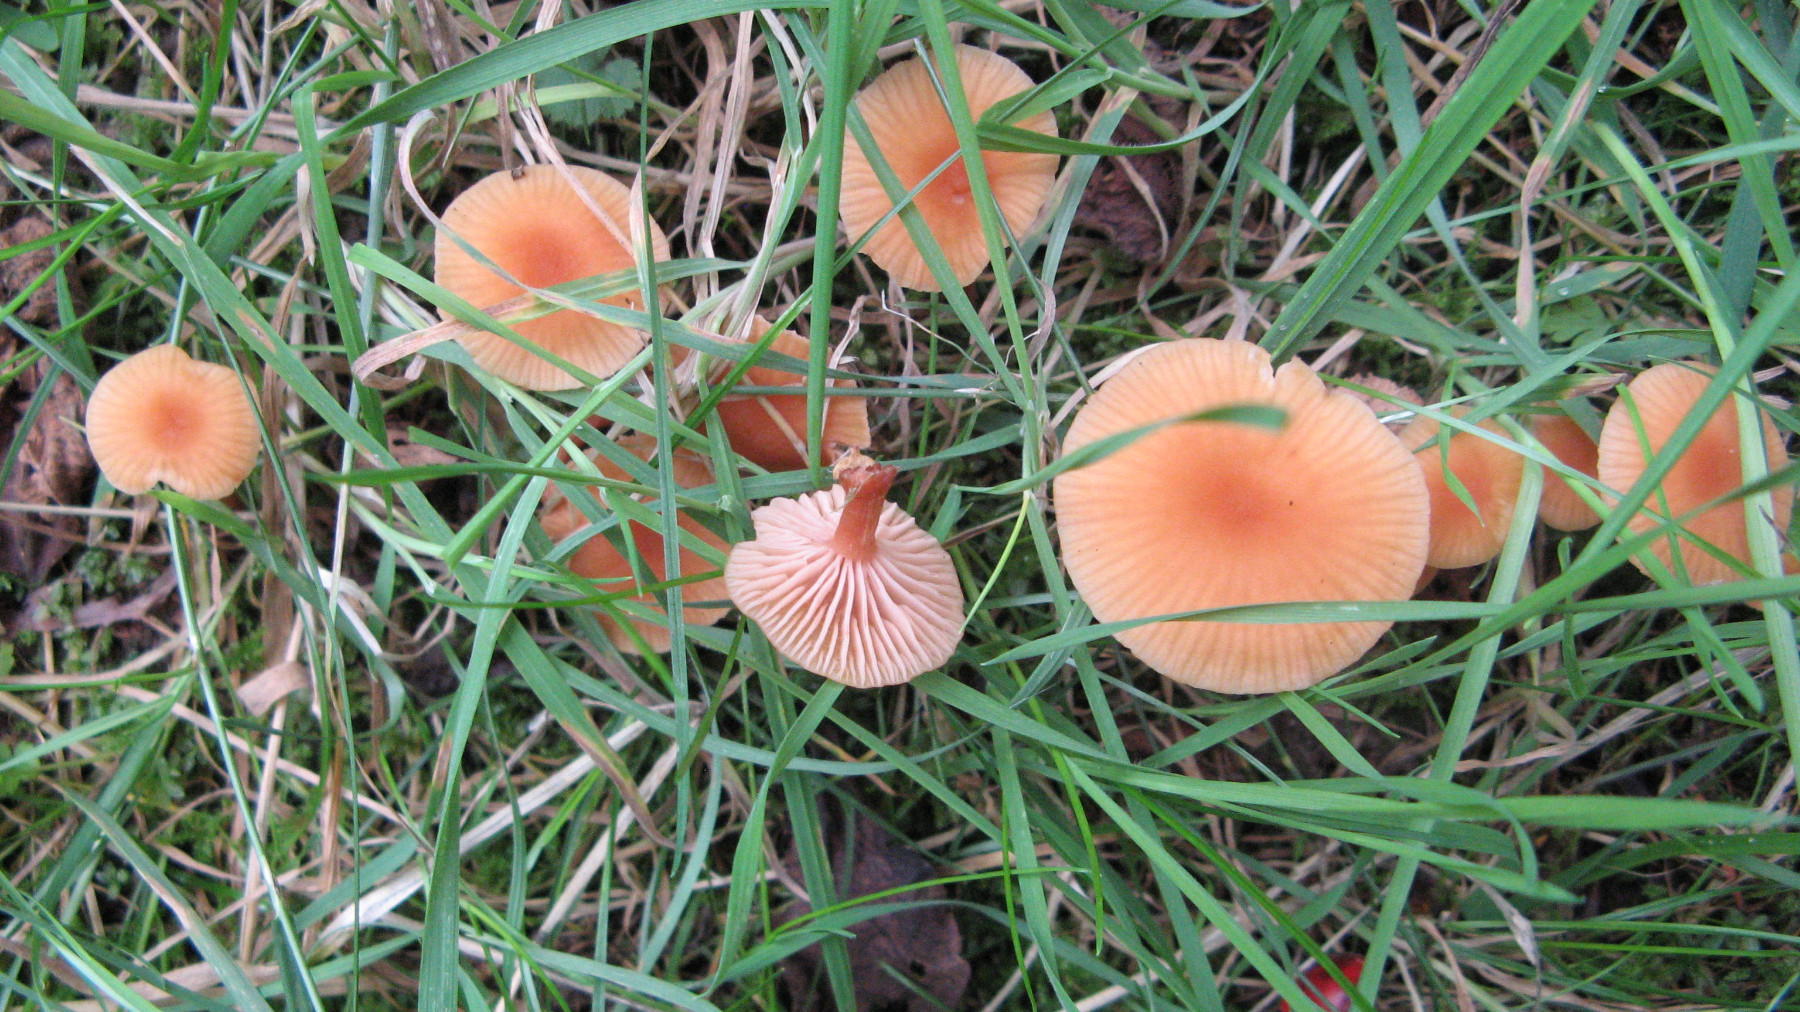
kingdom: Fungi
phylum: Basidiomycota
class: Agaricomycetes
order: Agaricales
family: Hydnangiaceae
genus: Laccaria
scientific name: Laccaria laccata
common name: rød ametysthat
